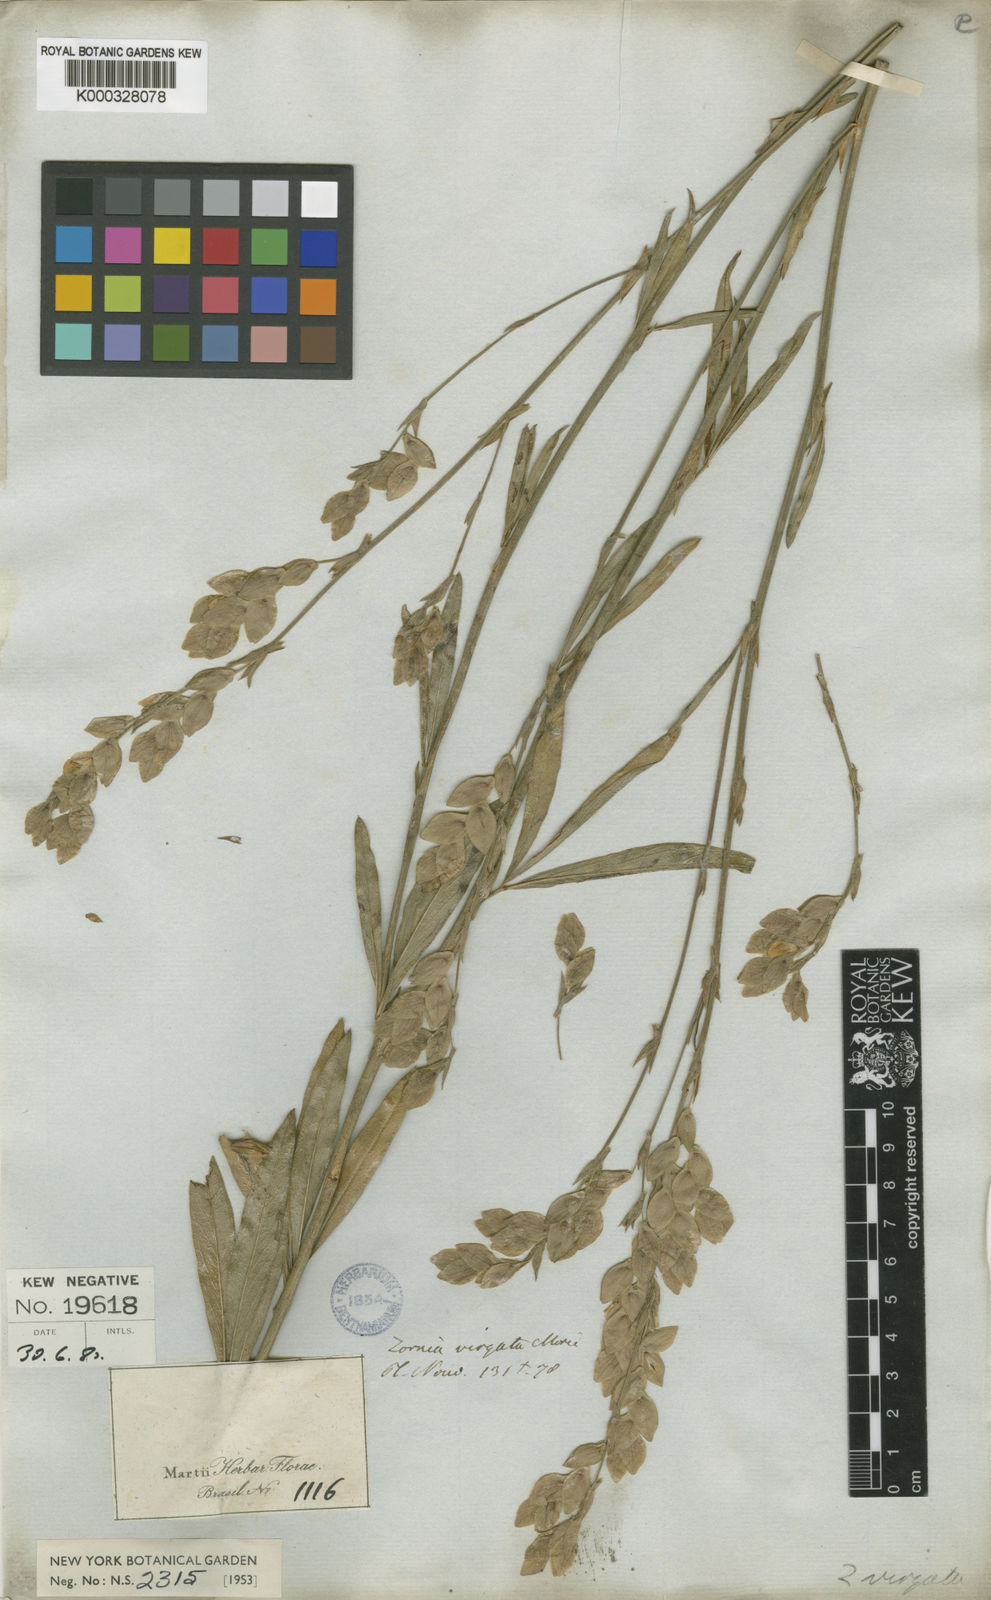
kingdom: Plantae
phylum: Tracheophyta
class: Magnoliopsida
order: Fabales
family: Fabaceae
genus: Zornia
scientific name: Zornia virgata
